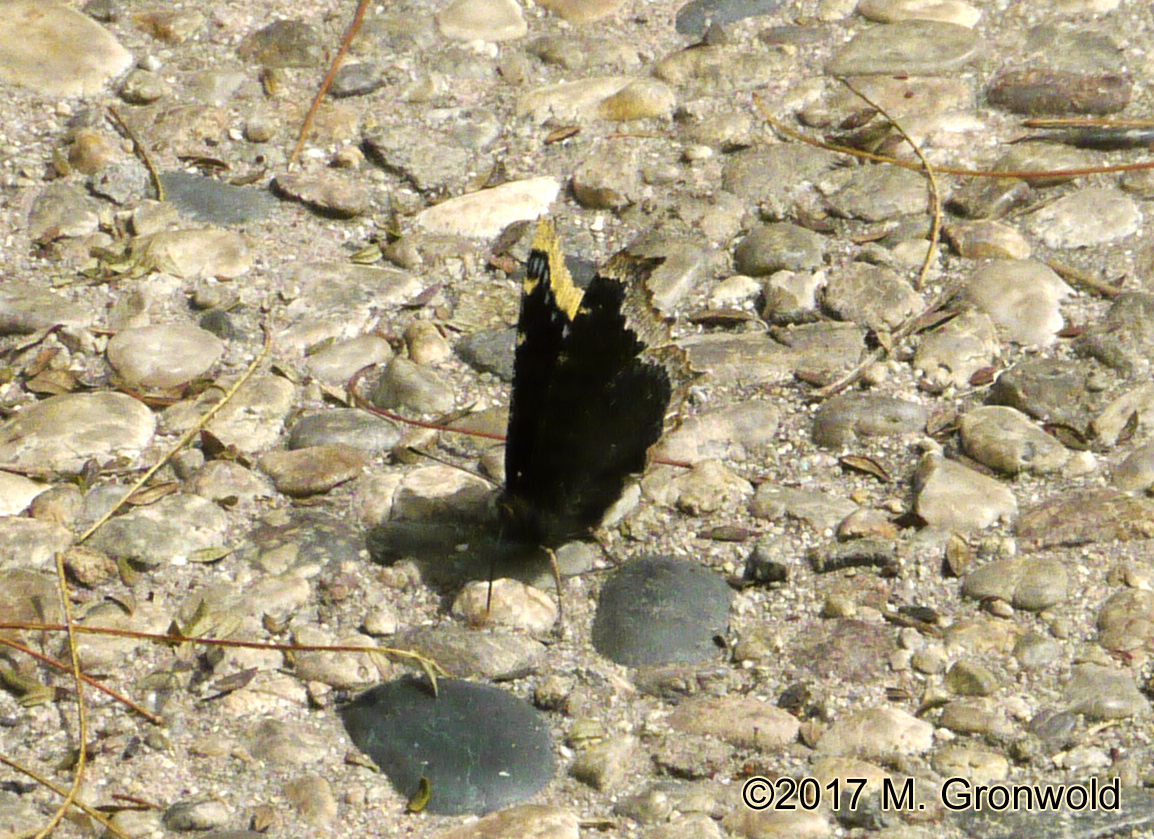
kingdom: Animalia
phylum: Arthropoda
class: Insecta
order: Lepidoptera
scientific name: Lepidoptera
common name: Butterflies
